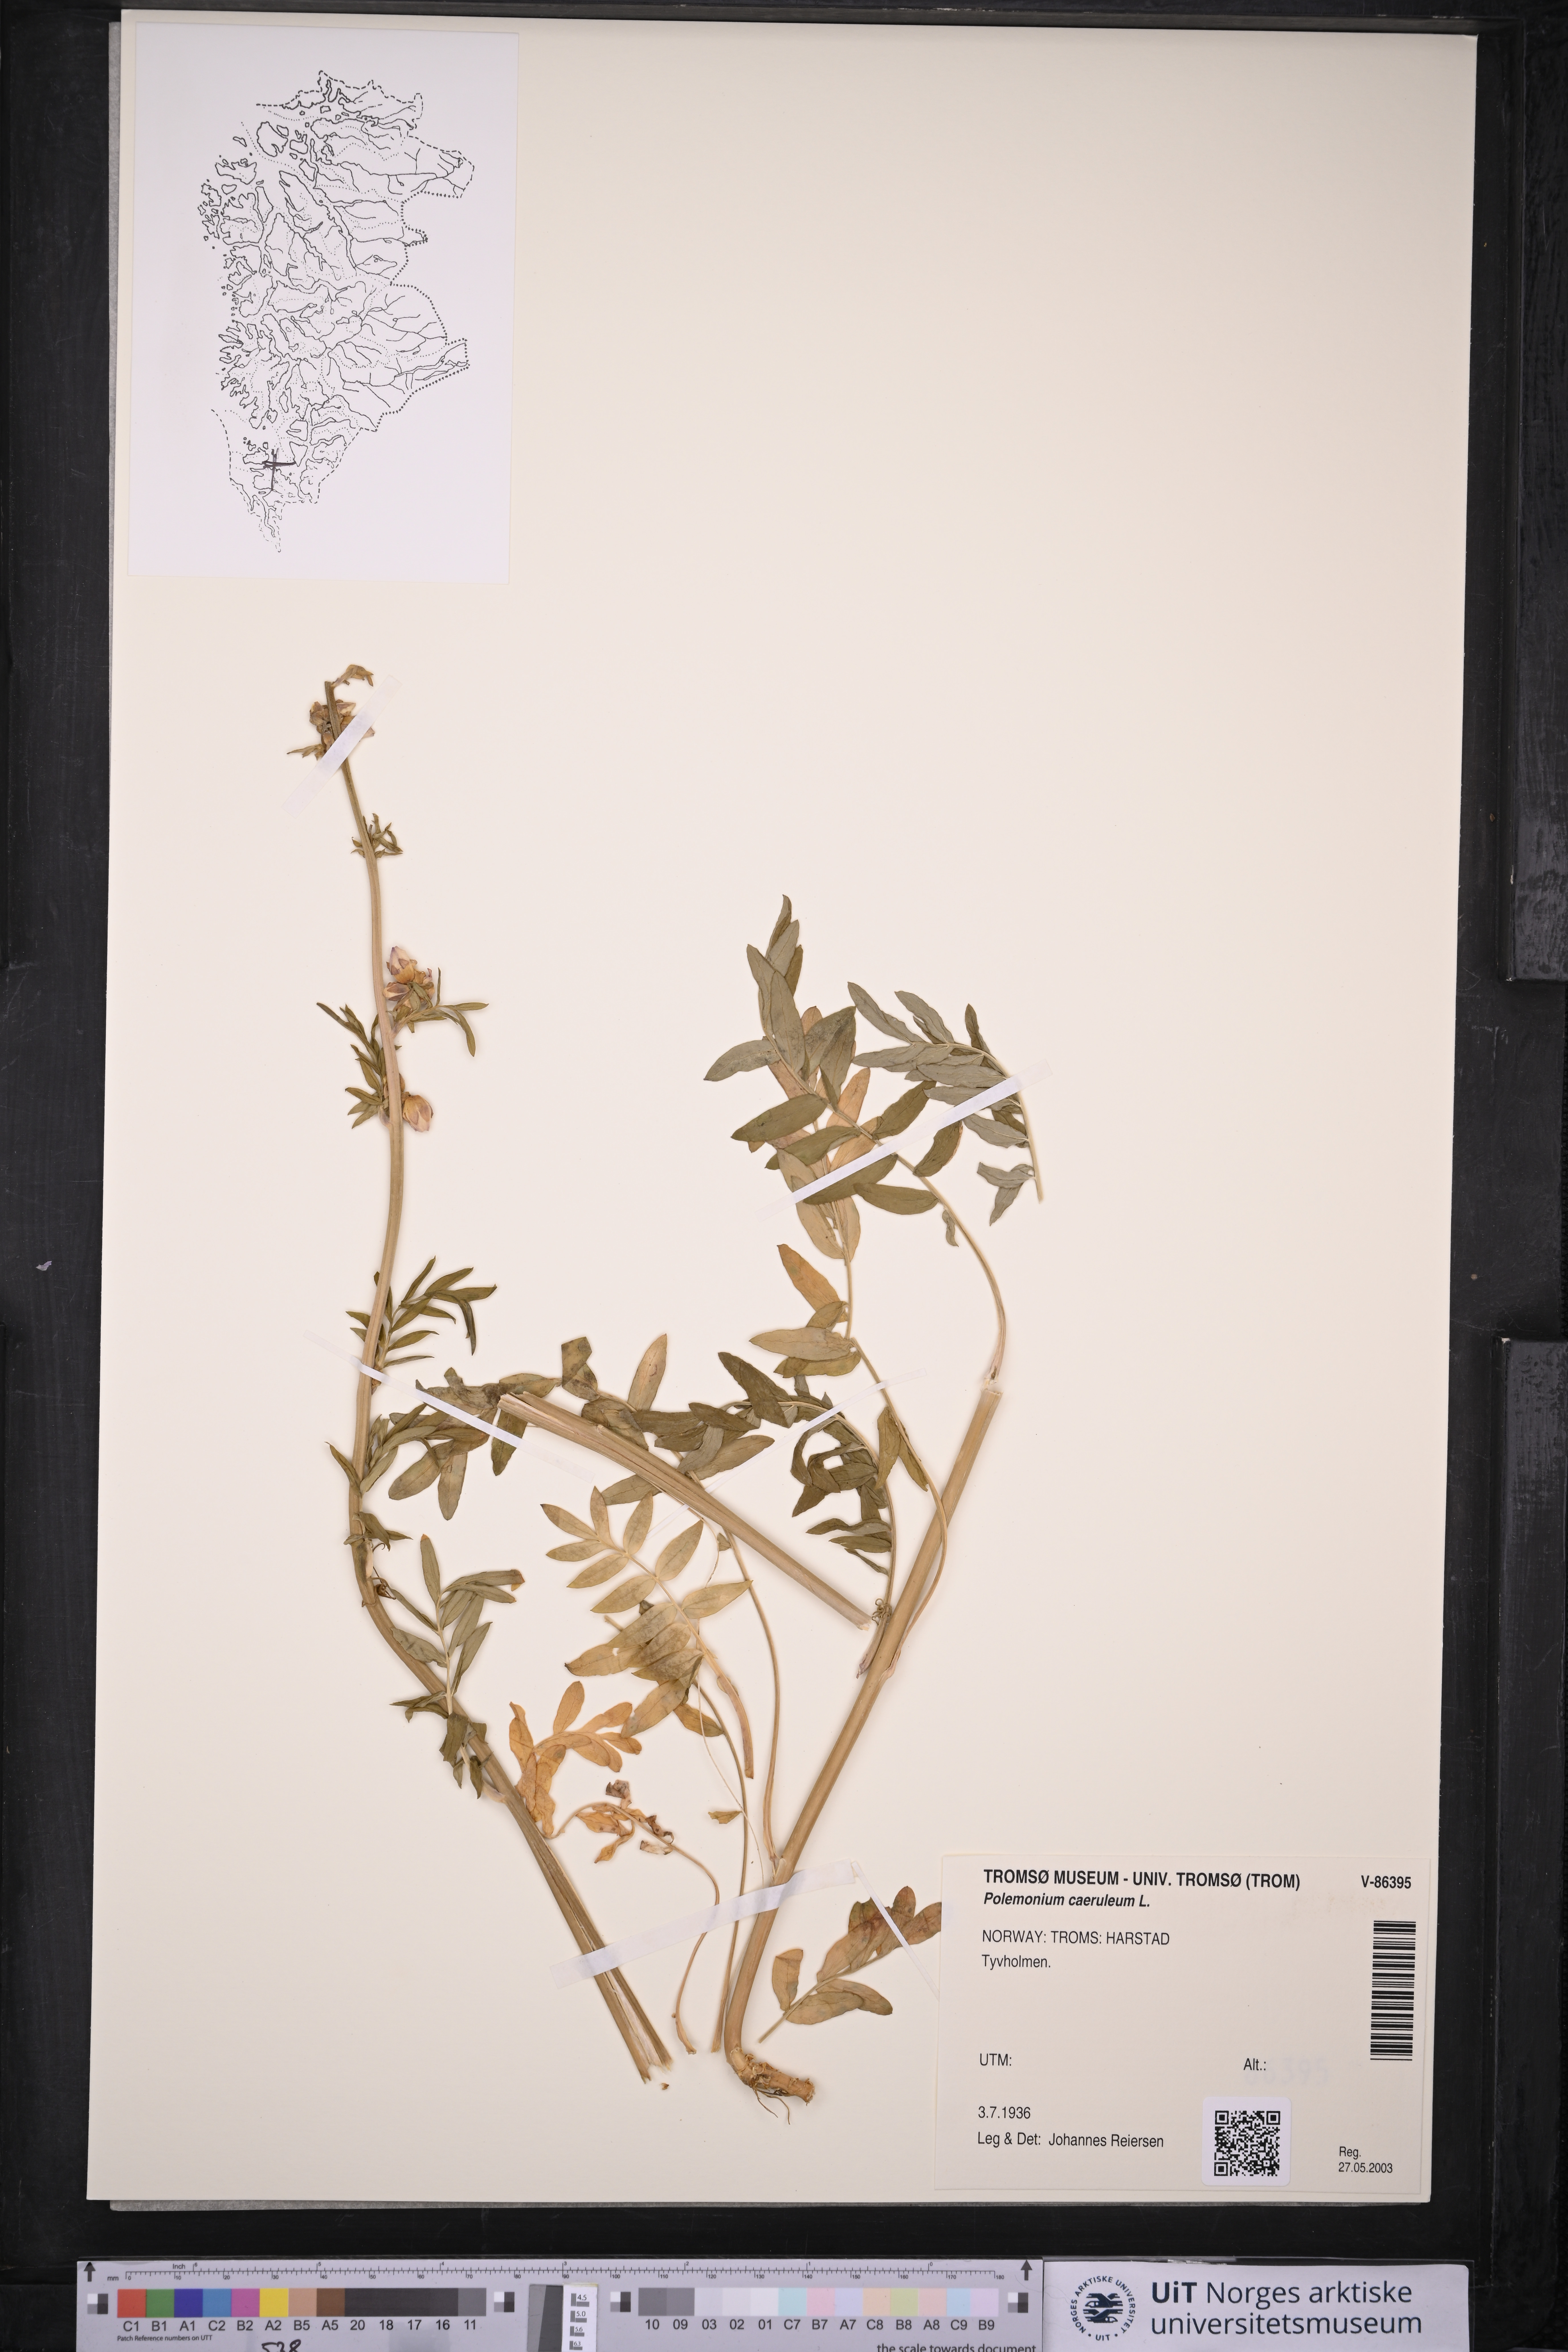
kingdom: Plantae
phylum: Tracheophyta
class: Magnoliopsida
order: Ericales
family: Polemoniaceae
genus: Polemonium
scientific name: Polemonium caeruleum
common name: Jacob's-ladder
